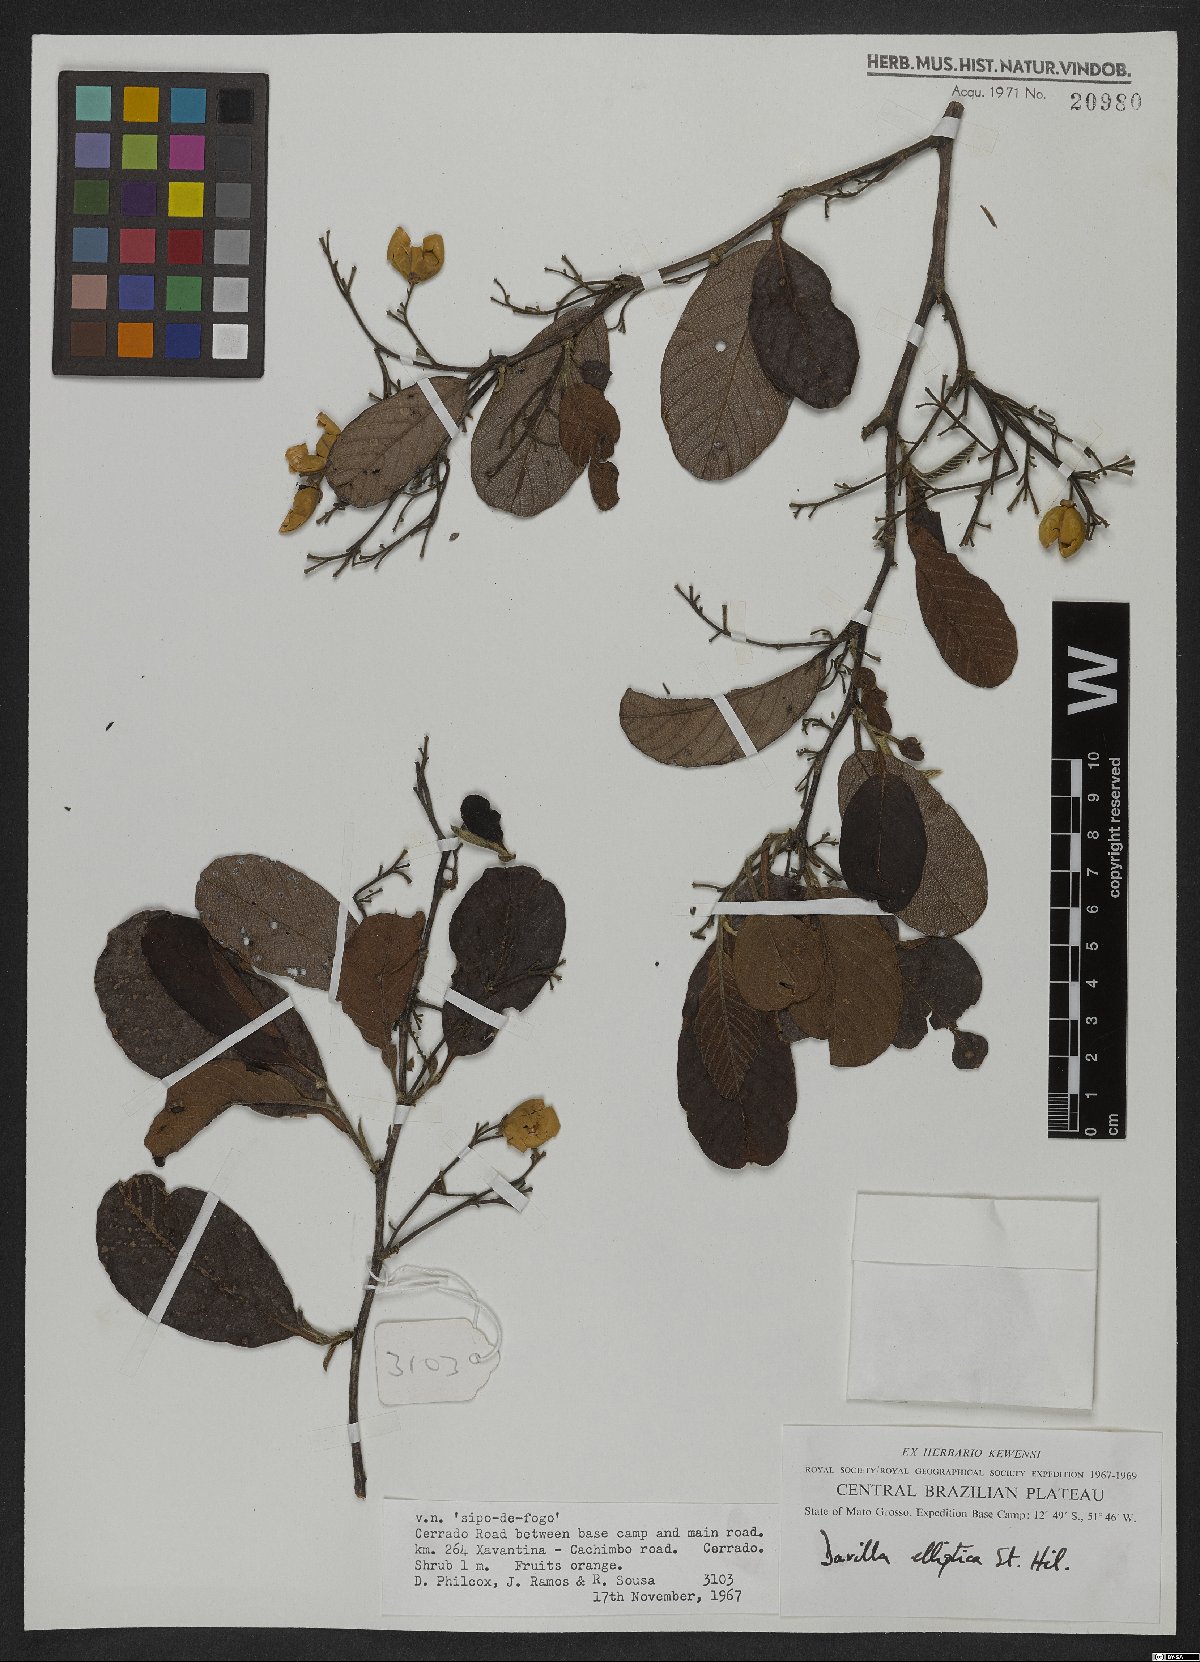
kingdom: Plantae
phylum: Tracheophyta
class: Magnoliopsida
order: Dilleniales
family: Dilleniaceae
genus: Davilla
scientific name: Davilla elliptica
